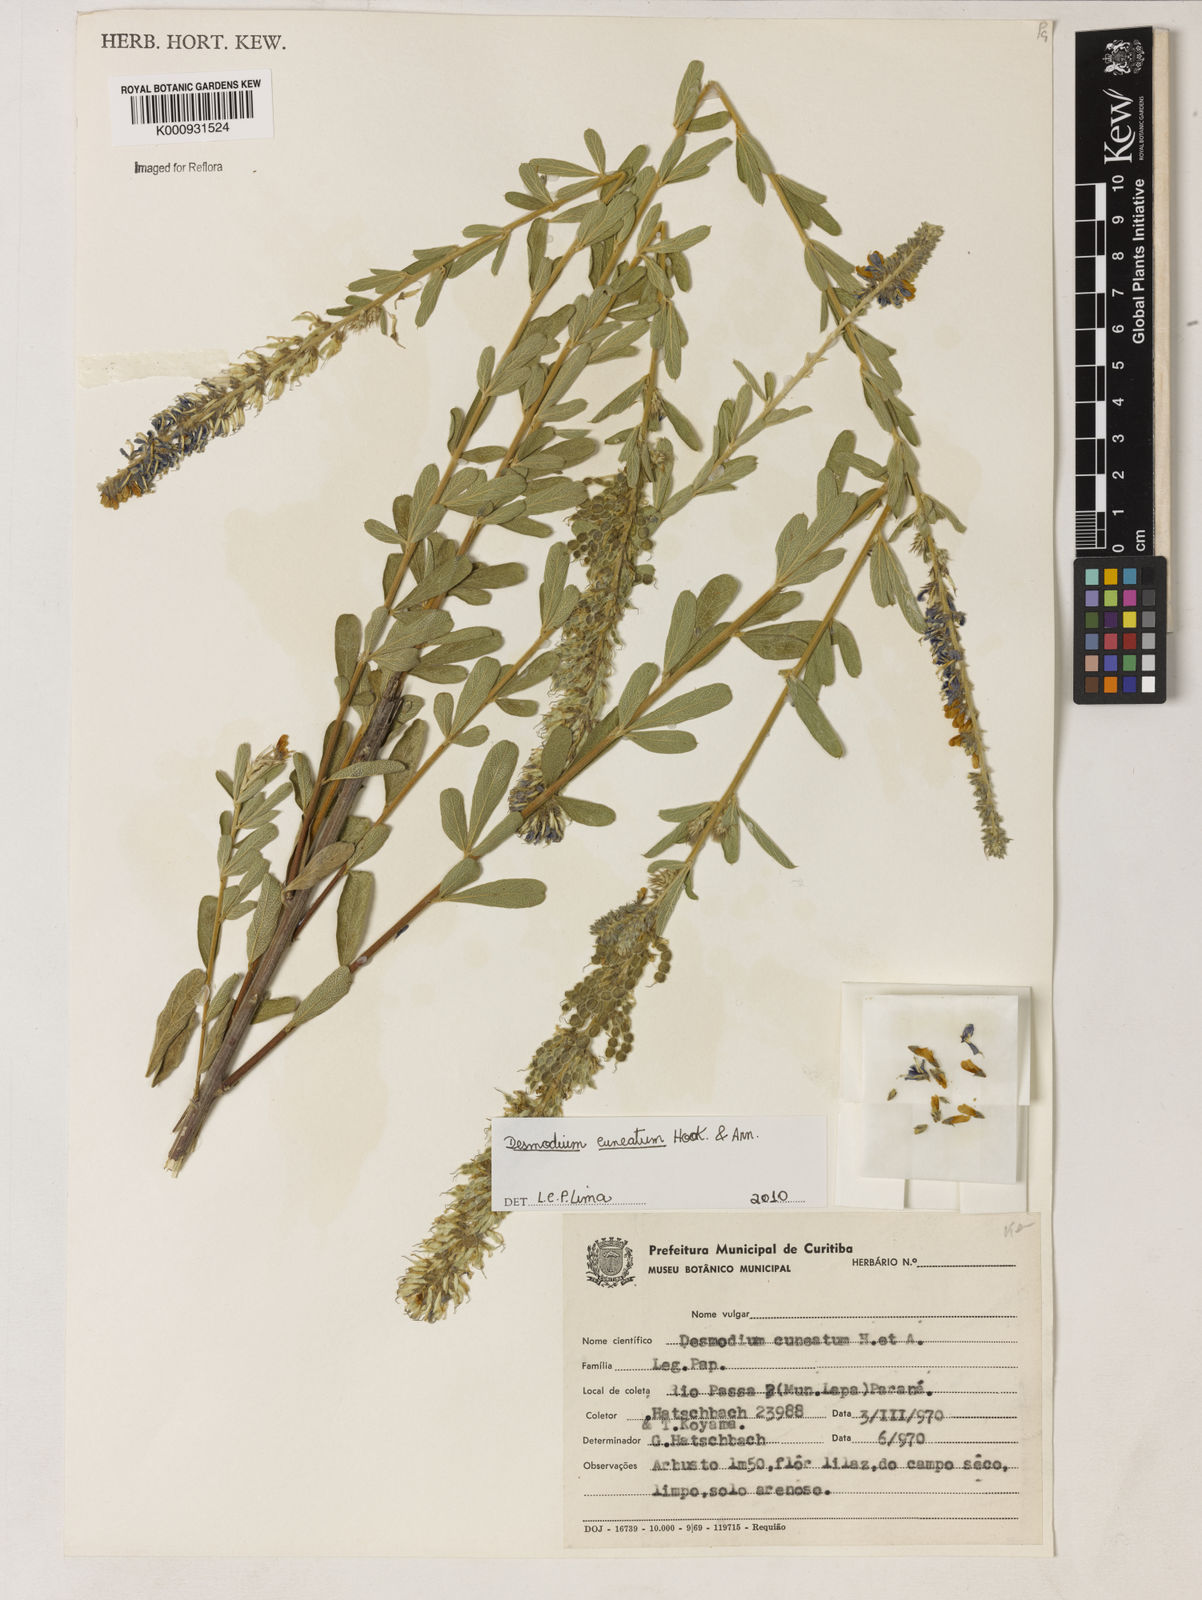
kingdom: Plantae
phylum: Tracheophyta
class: Magnoliopsida
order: Fabales
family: Fabaceae
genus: Desmodium
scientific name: Desmodium cuneatum
